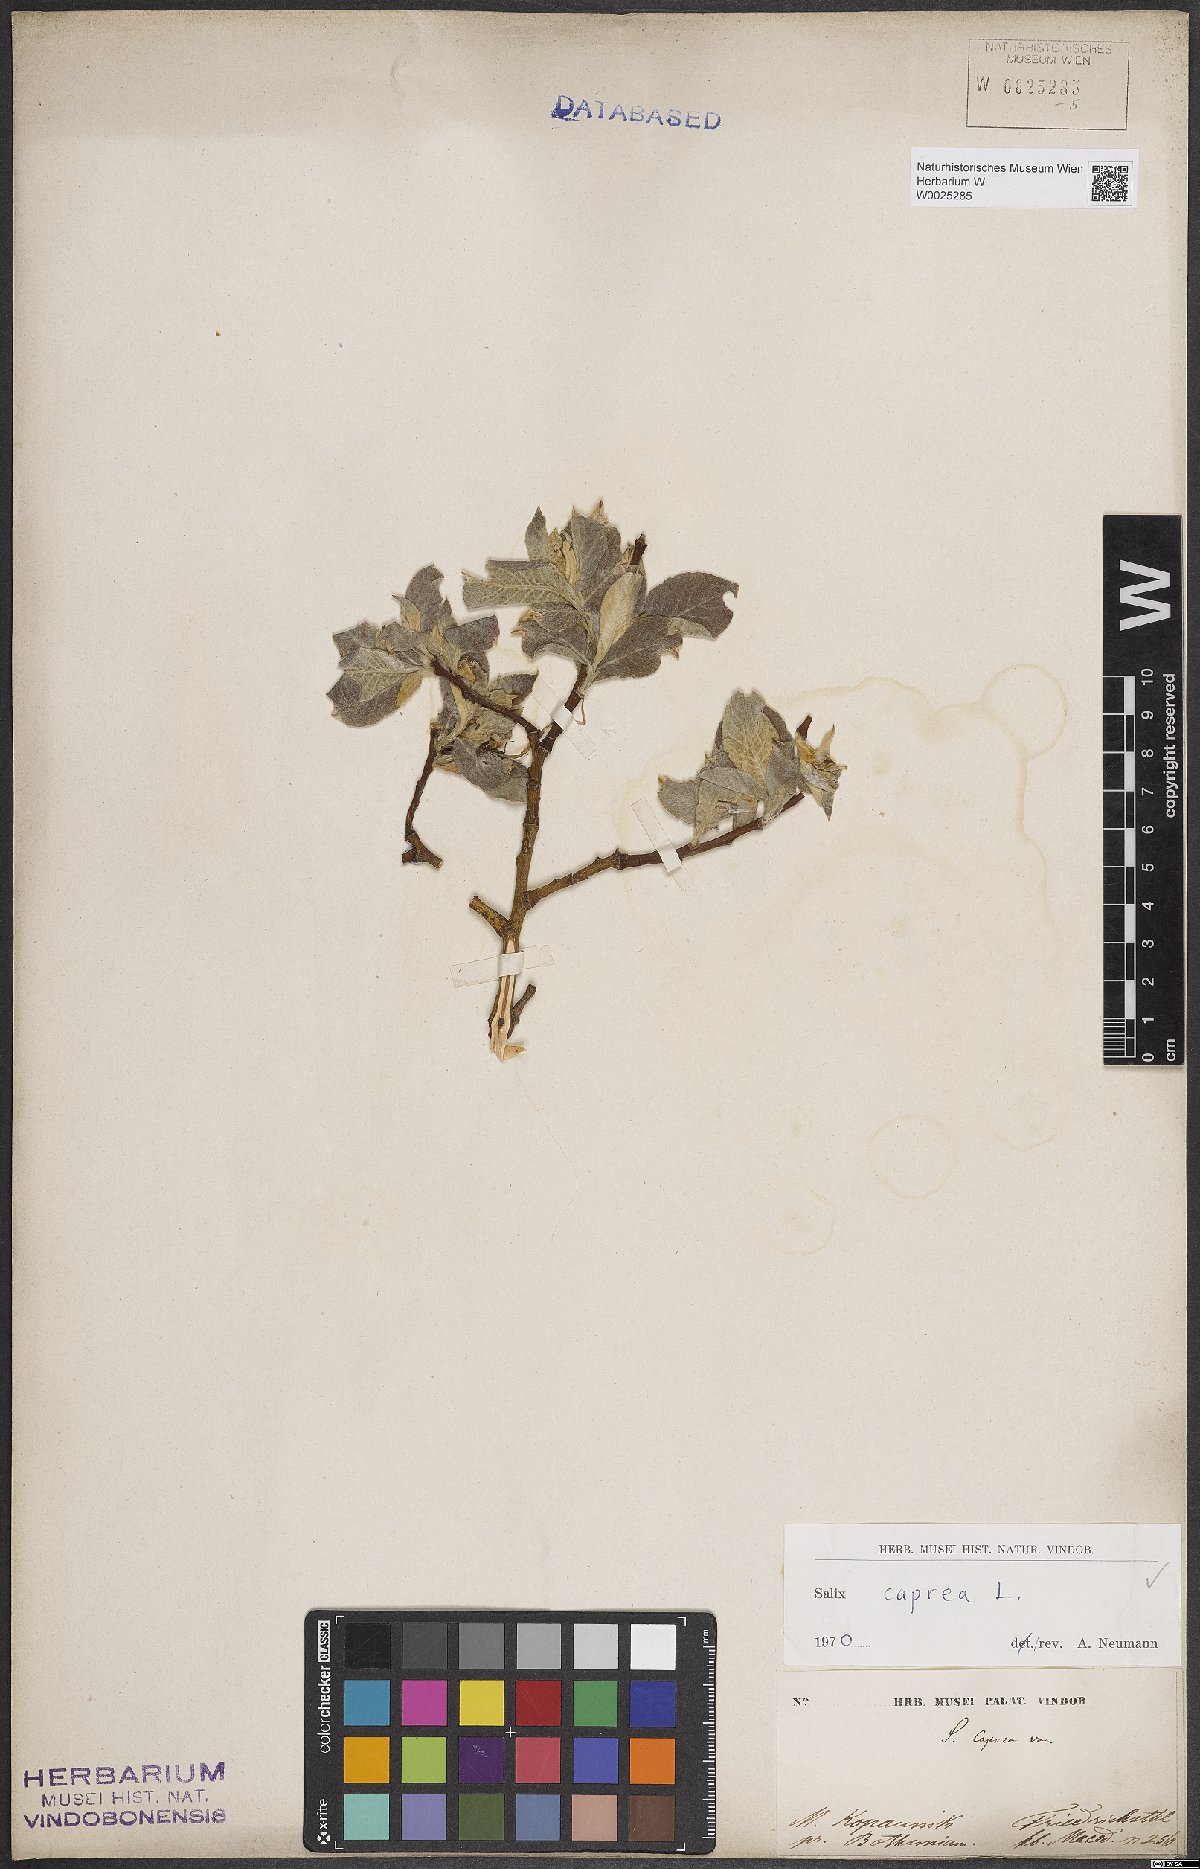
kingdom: Plantae
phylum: Tracheophyta
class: Magnoliopsida
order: Malpighiales
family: Salicaceae
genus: Salix
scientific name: Salix caprea
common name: Goat willow
